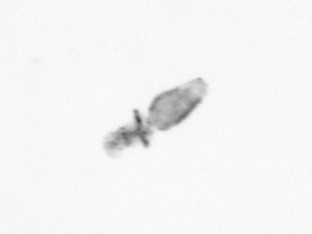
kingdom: Animalia
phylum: Arthropoda
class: Copepoda
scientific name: Copepoda
